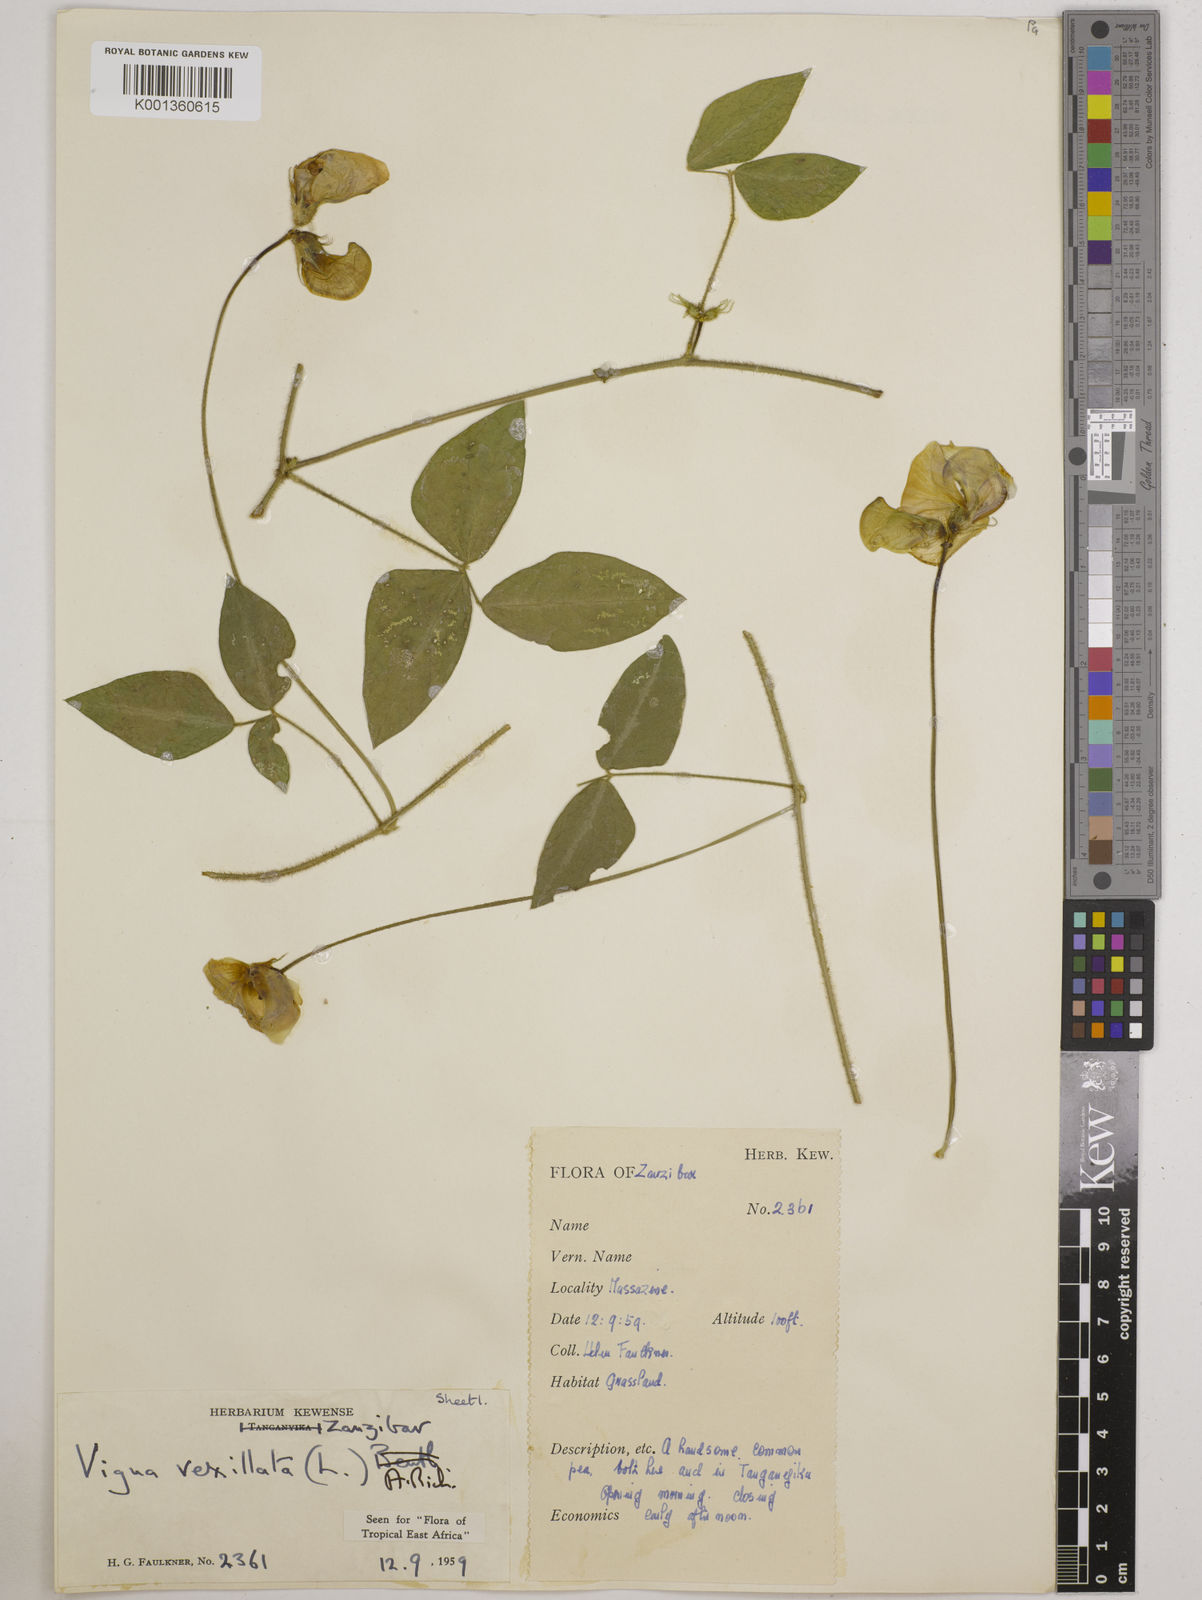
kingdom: Plantae
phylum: Tracheophyta
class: Magnoliopsida
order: Fabales
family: Fabaceae
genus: Vigna
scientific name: Vigna vexillata
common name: Zombi pea
